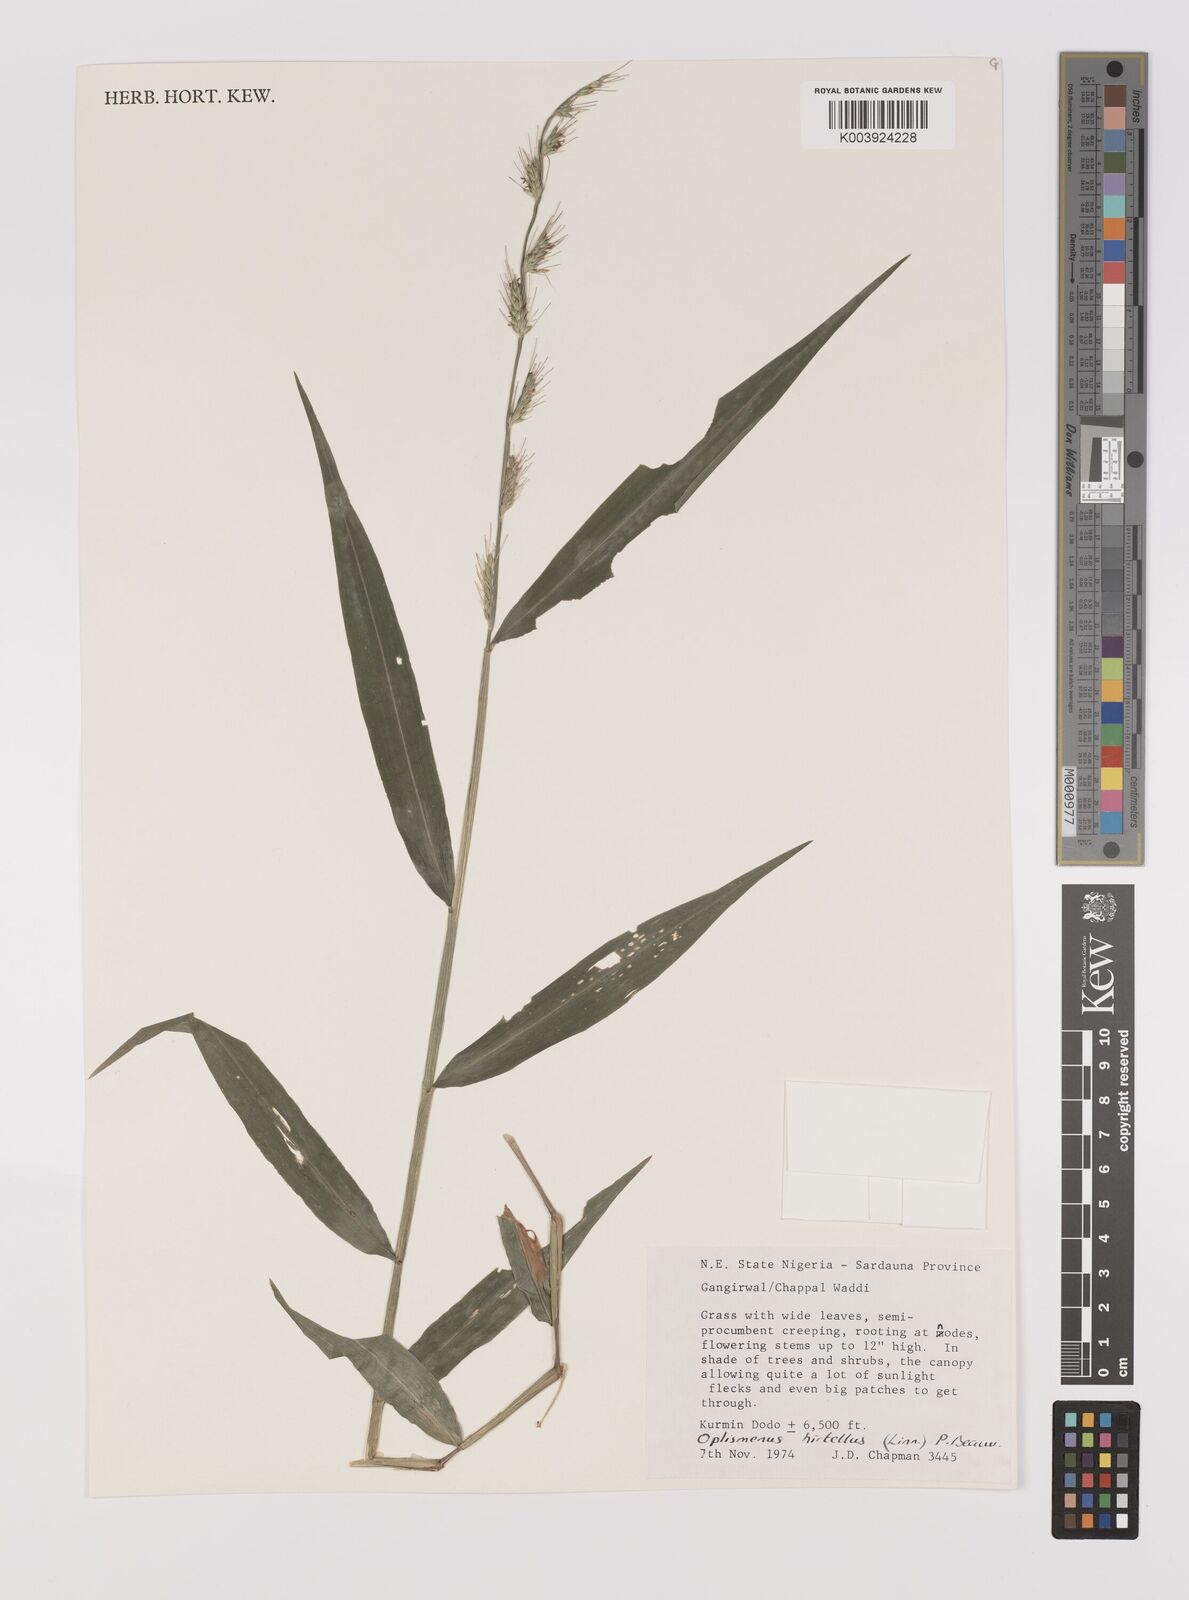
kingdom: Plantae
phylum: Tracheophyta
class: Liliopsida
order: Poales
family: Poaceae
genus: Oplismenus
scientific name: Oplismenus hirtellus
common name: Basketgrass
